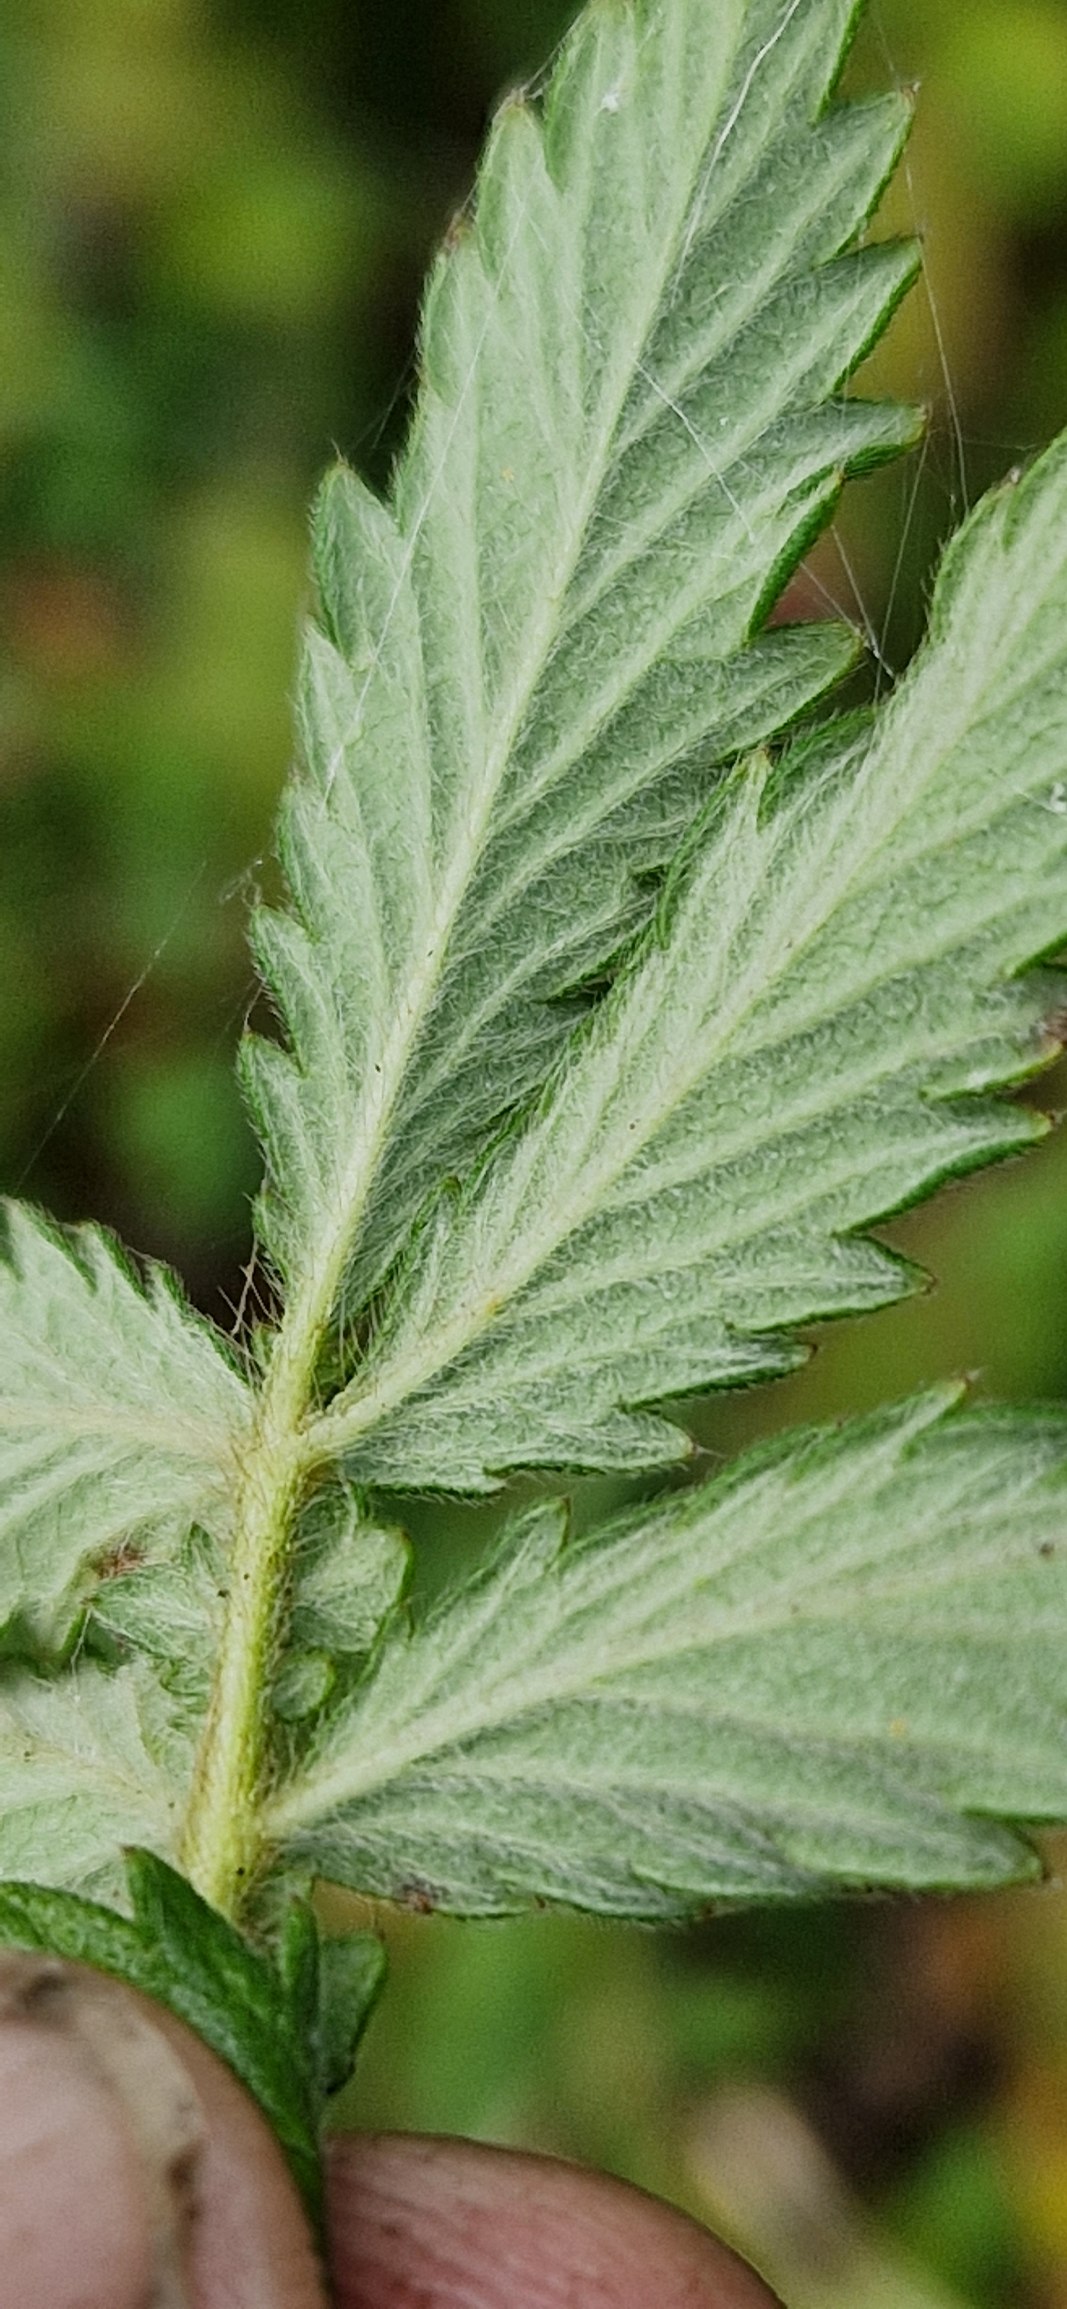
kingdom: Plantae
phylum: Tracheophyta
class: Magnoliopsida
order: Rosales
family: Rosaceae
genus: Agrimonia
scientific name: Agrimonia eupatoria
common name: Almindelig agermåne
